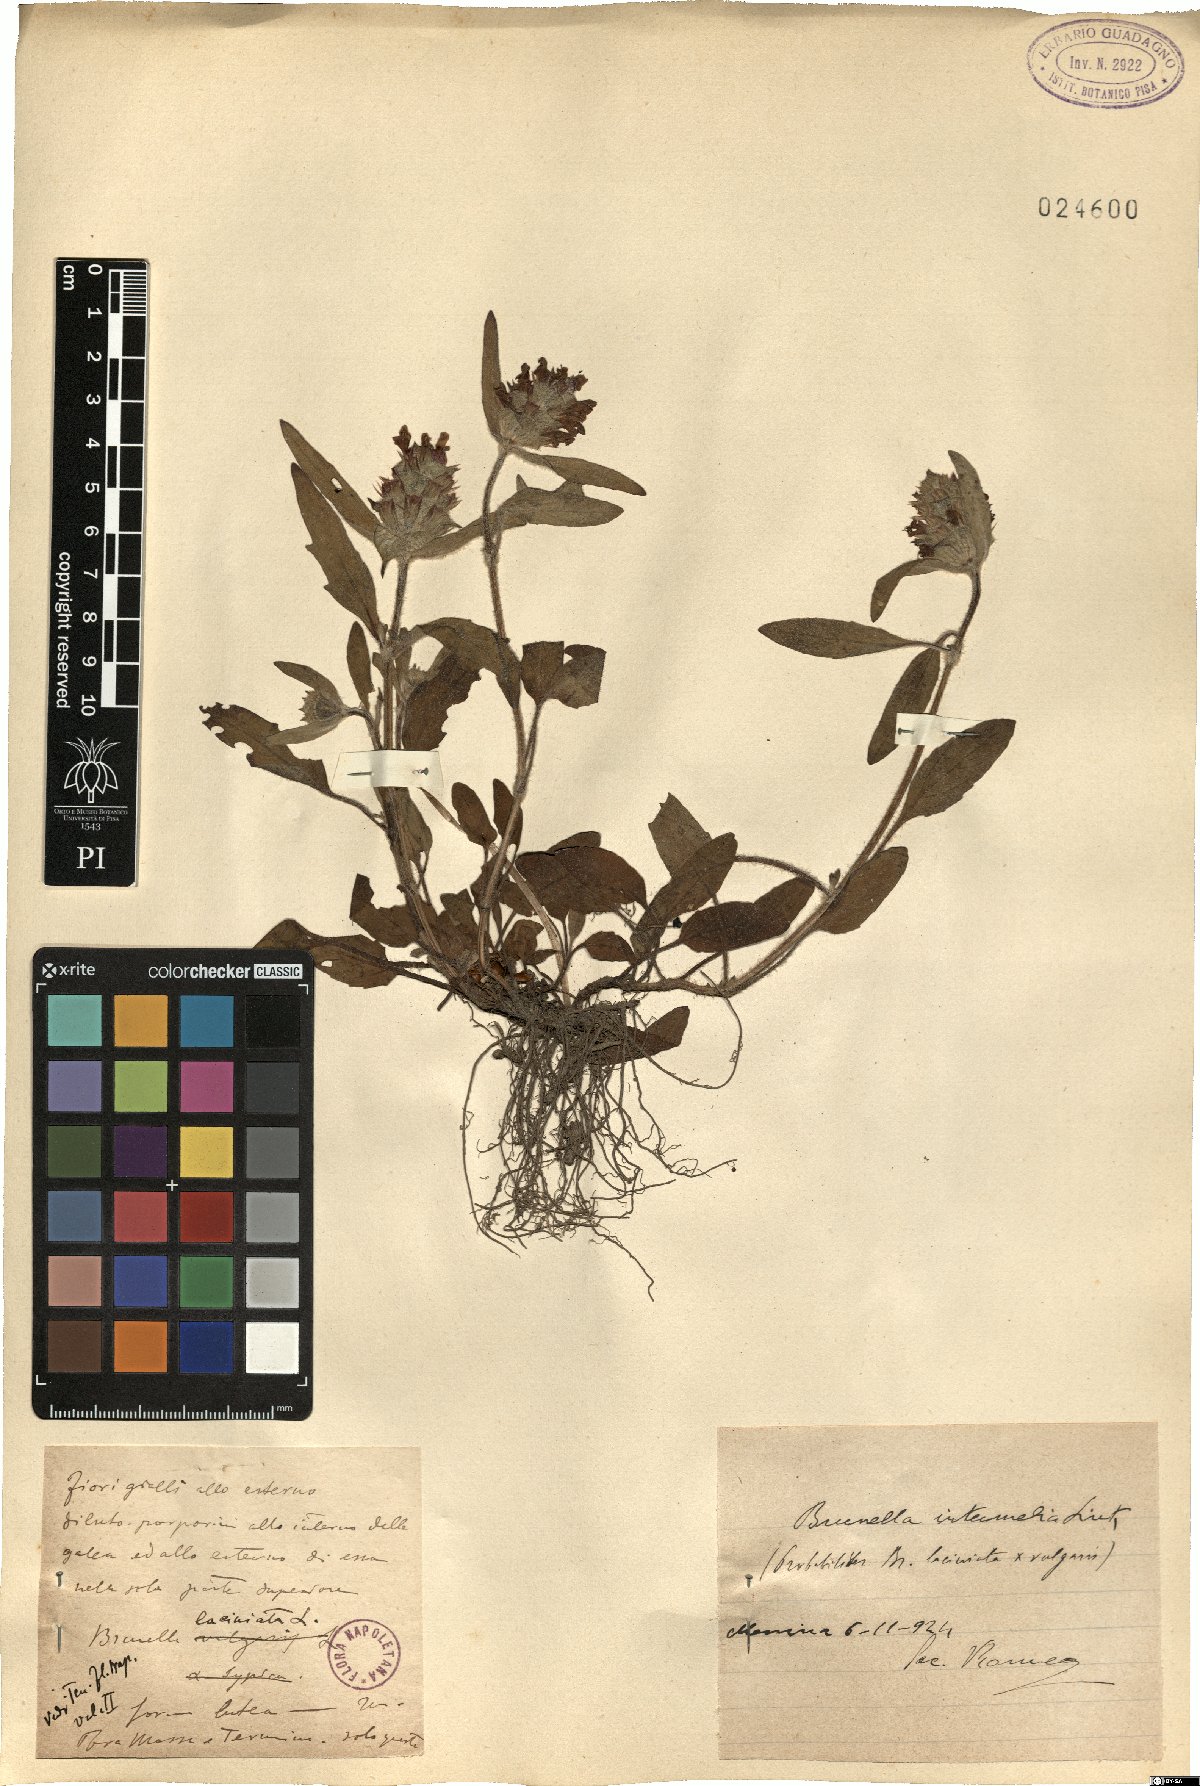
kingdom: Plantae
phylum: Tracheophyta
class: Magnoliopsida
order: Lamiales
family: Lamiaceae
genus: Prunella
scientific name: Prunella intermedia
